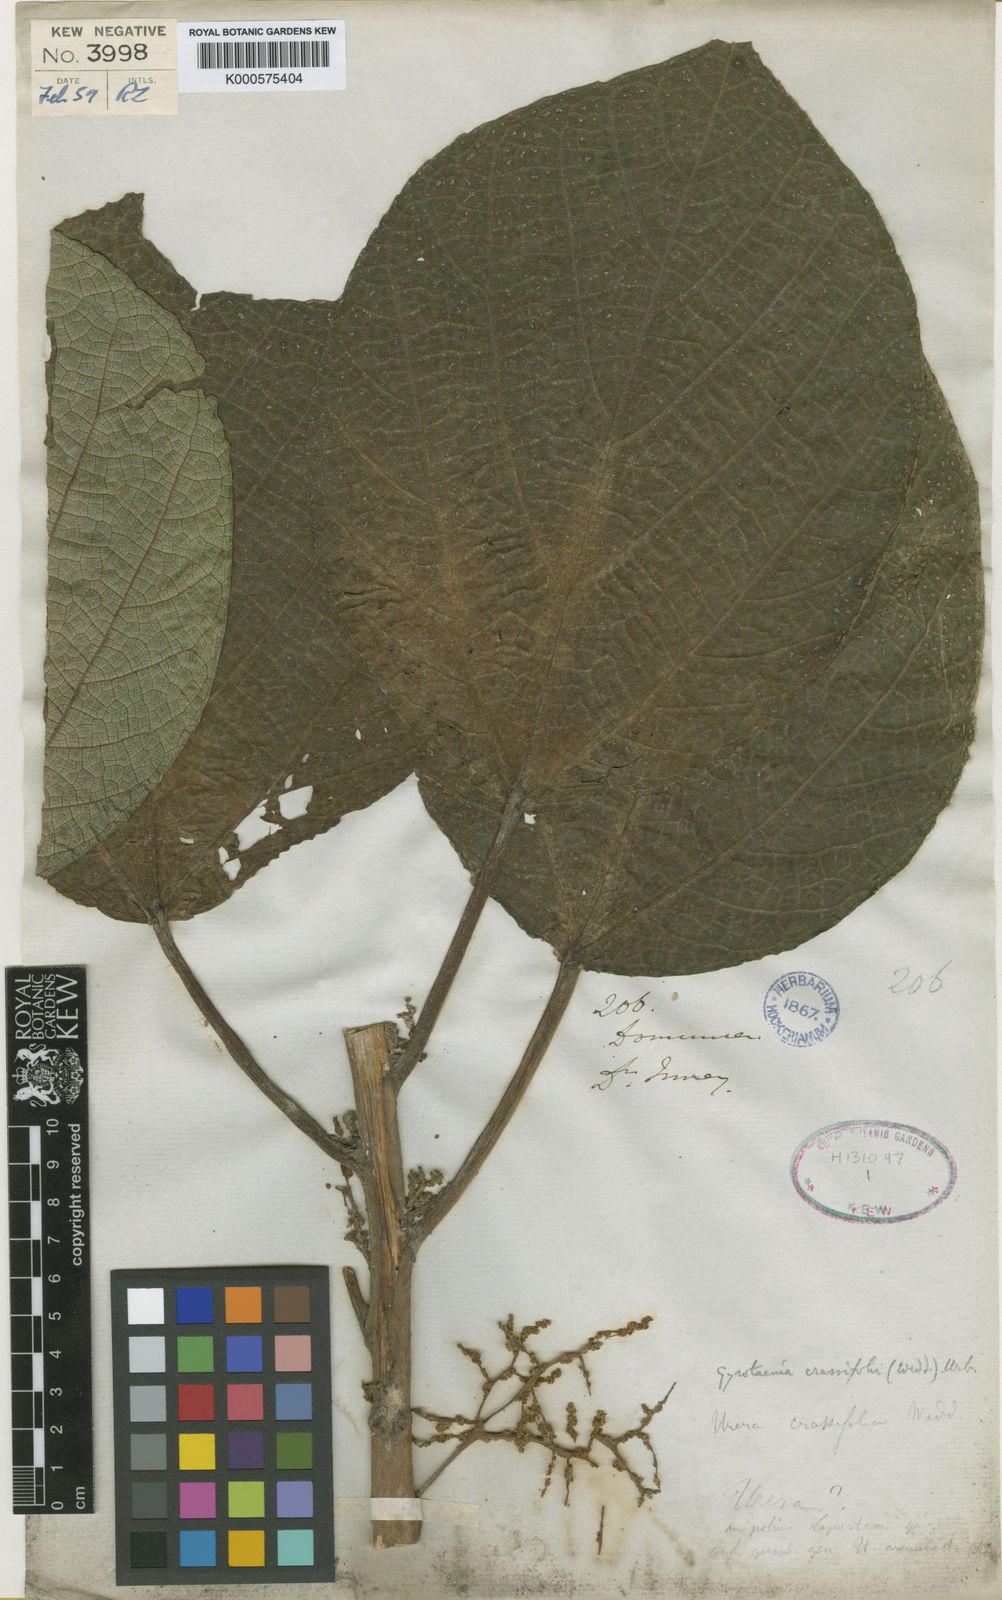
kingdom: Plantae
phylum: Tracheophyta
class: Magnoliopsida
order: Rosales
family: Urticaceae
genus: Gyrotaenia
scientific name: Gyrotaenia crassifolia
